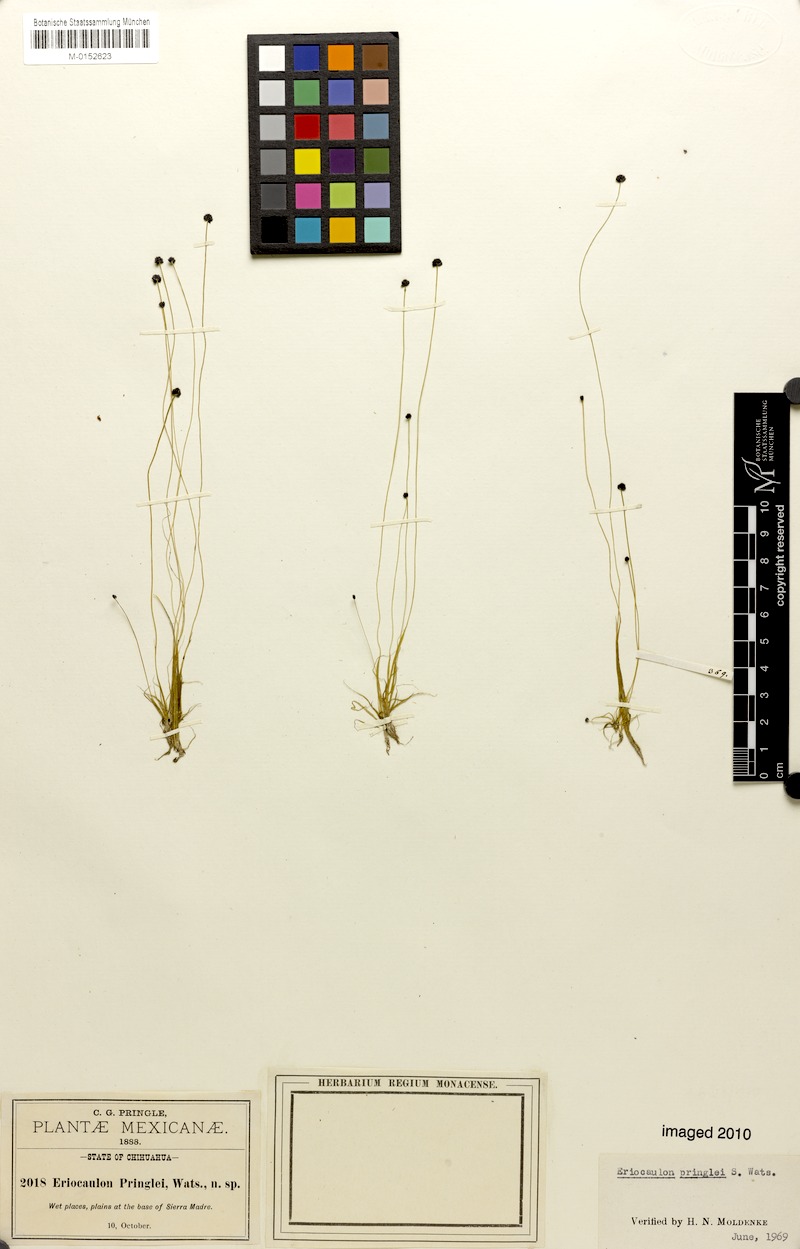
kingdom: Plantae
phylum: Tracheophyta
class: Liliopsida
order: Poales
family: Eriocaulaceae
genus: Eriocaulon
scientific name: Eriocaulon pringlei
